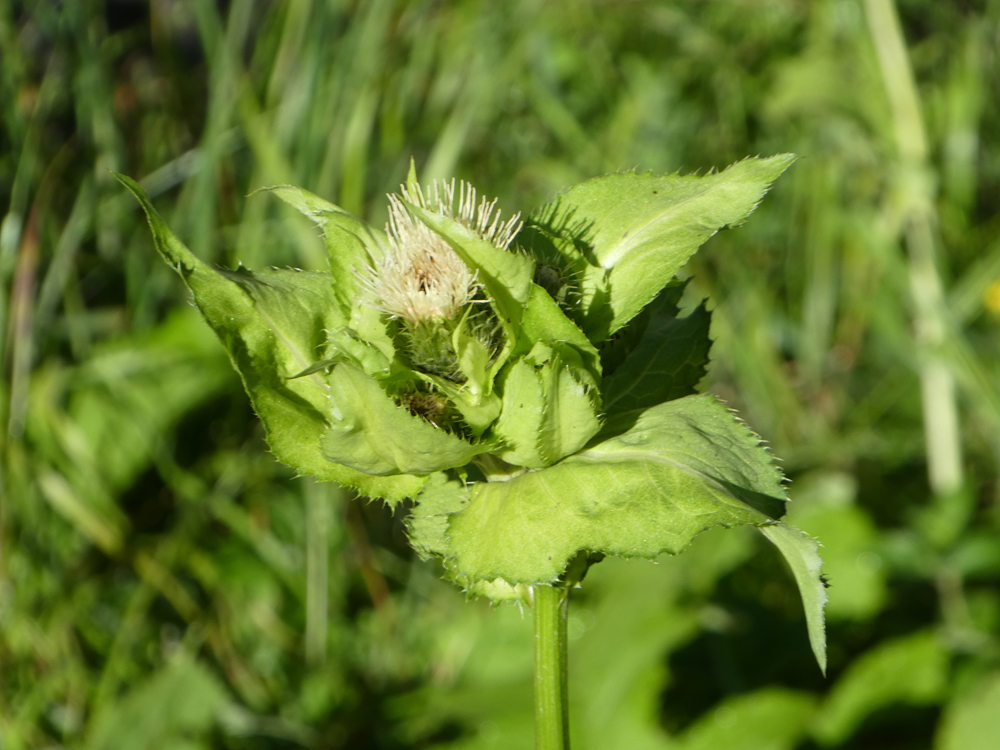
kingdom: Plantae
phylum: Tracheophyta
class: Magnoliopsida
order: Asterales
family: Asteraceae
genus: Cirsium
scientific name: Cirsium oleraceum
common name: Cabbage thistle
